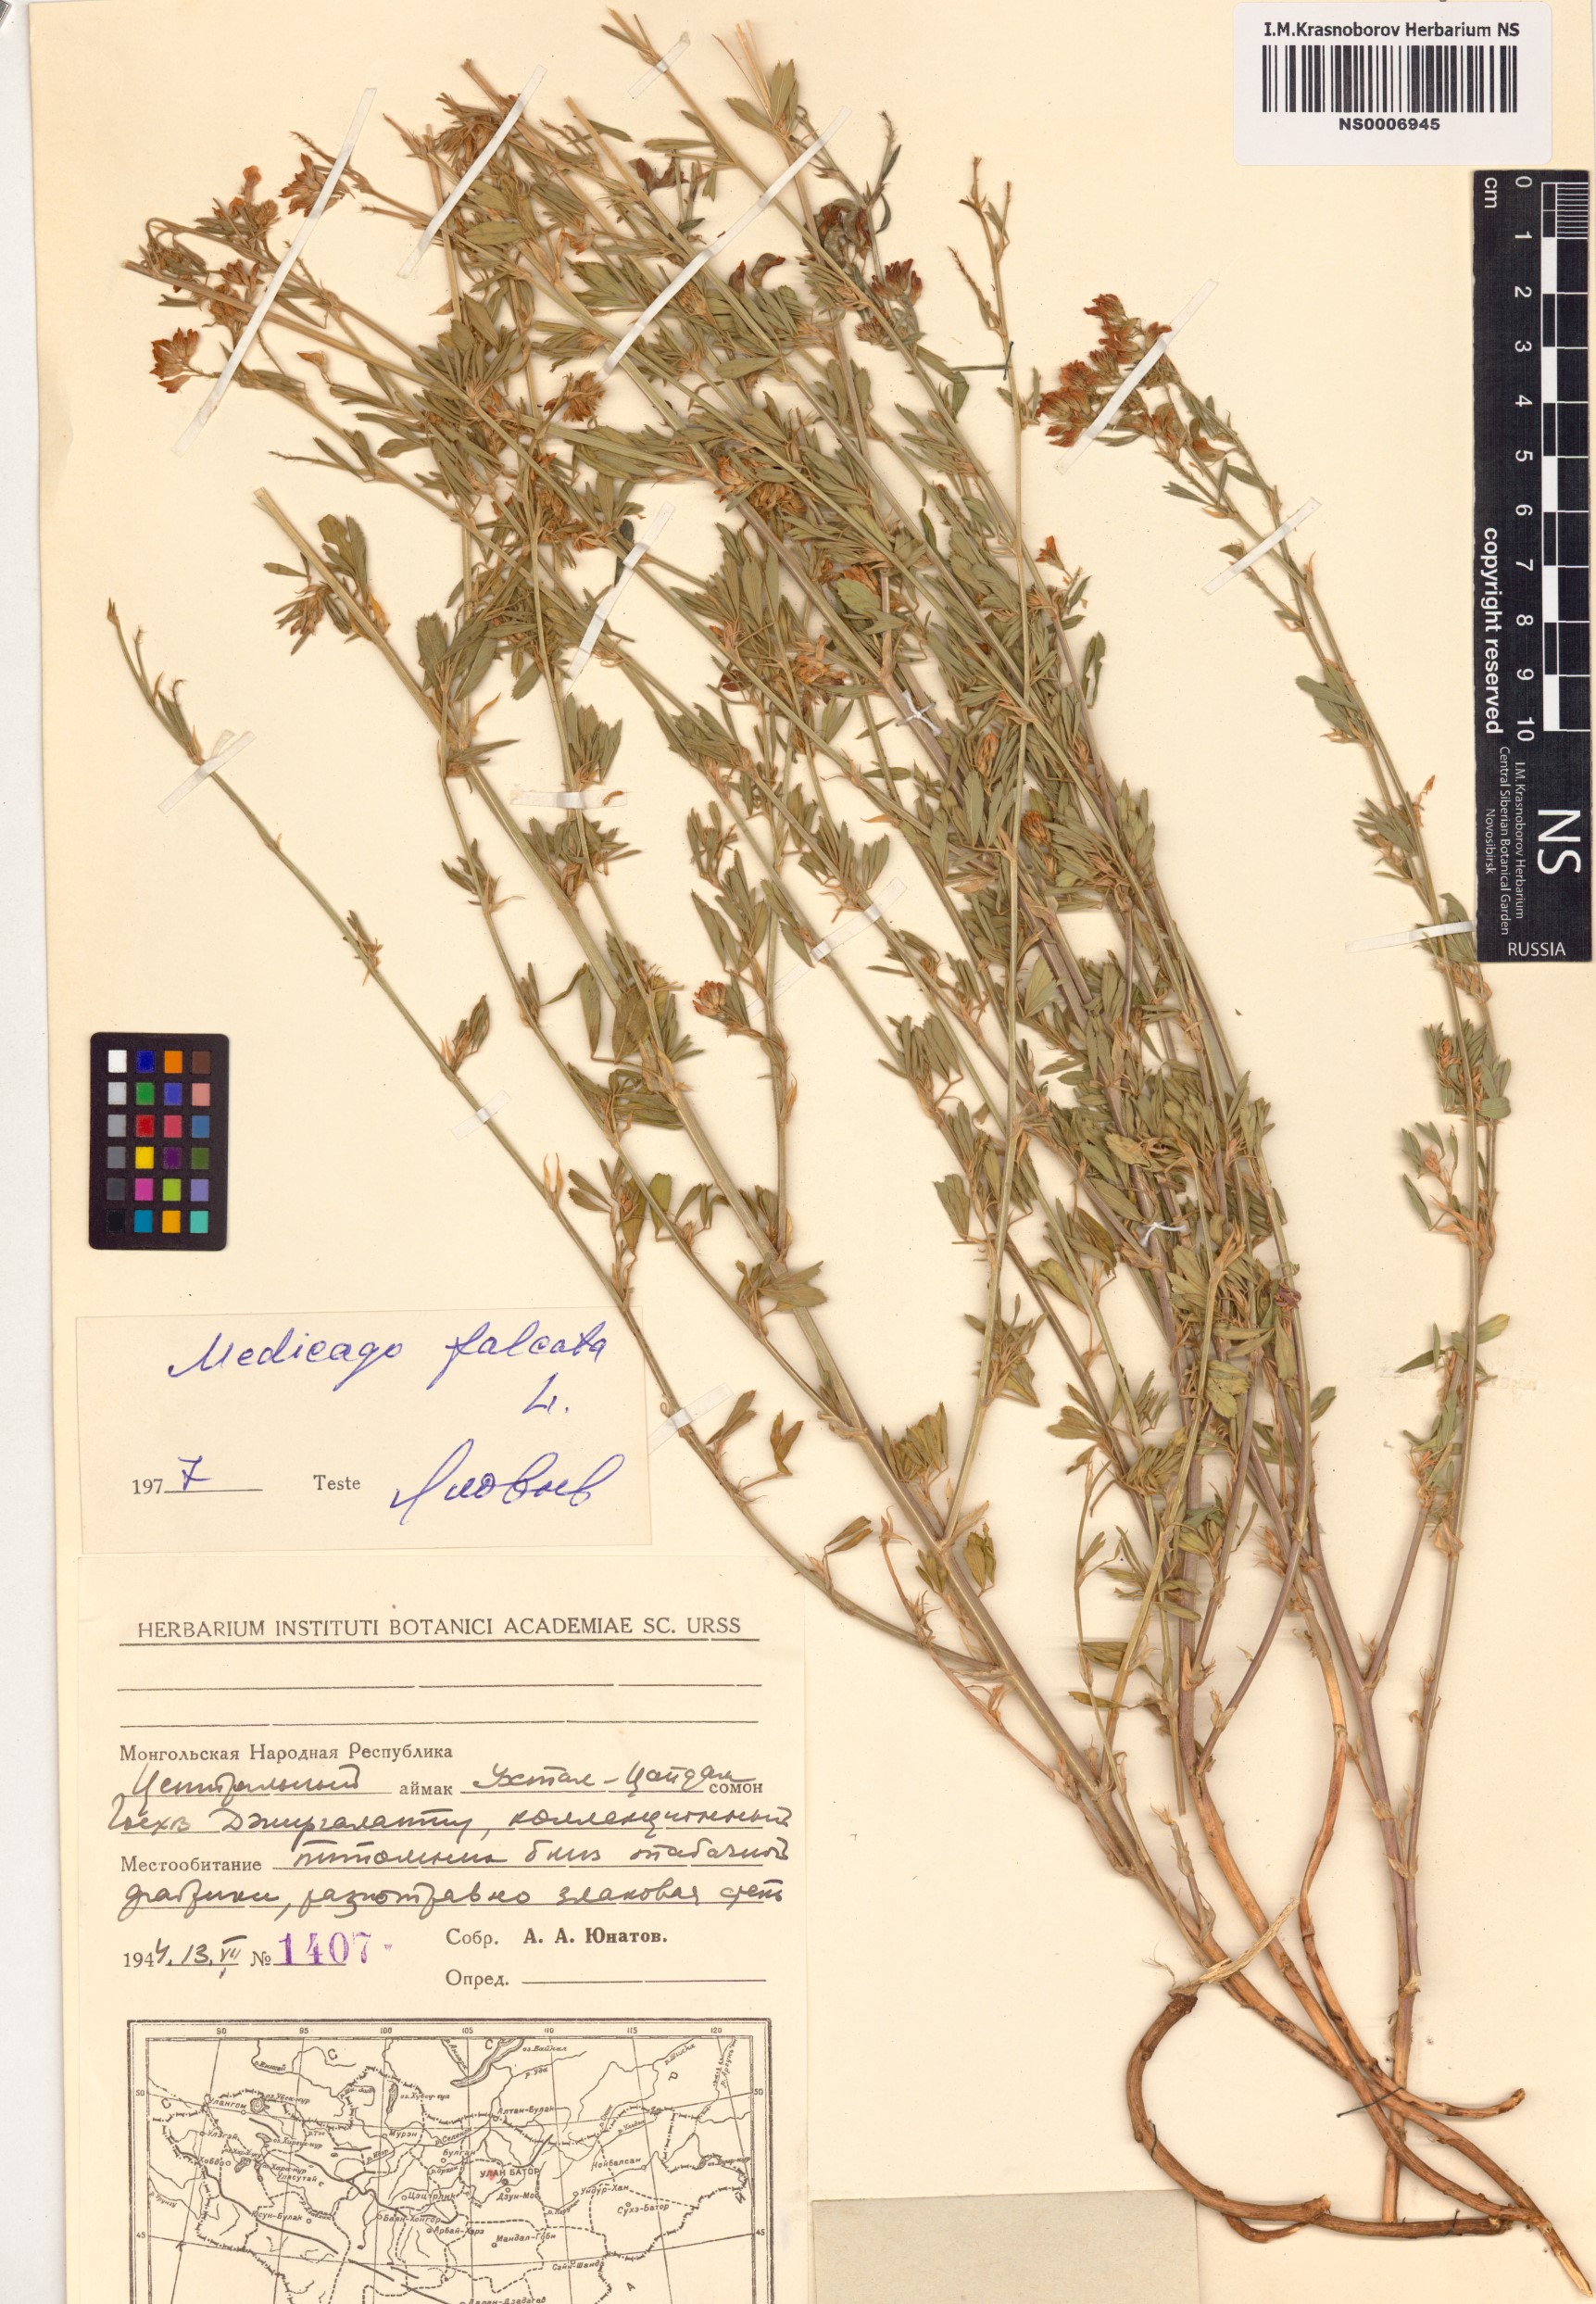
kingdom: Plantae
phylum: Tracheophyta
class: Magnoliopsida
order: Fabales
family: Fabaceae
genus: Medicago
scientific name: Medicago falcata
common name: Sickle medick
